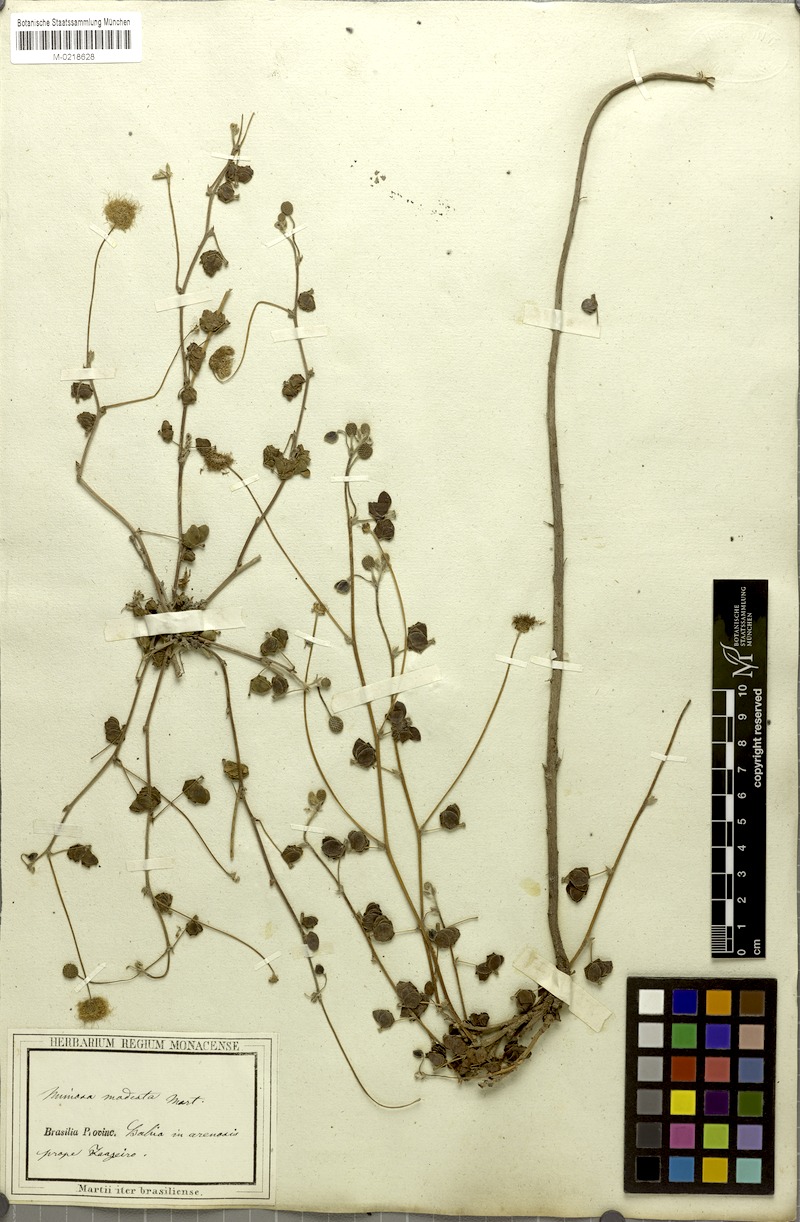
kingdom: Plantae
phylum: Tracheophyta
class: Magnoliopsida
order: Fabales
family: Fabaceae
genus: Mimosa
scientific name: Mimosa modesta
